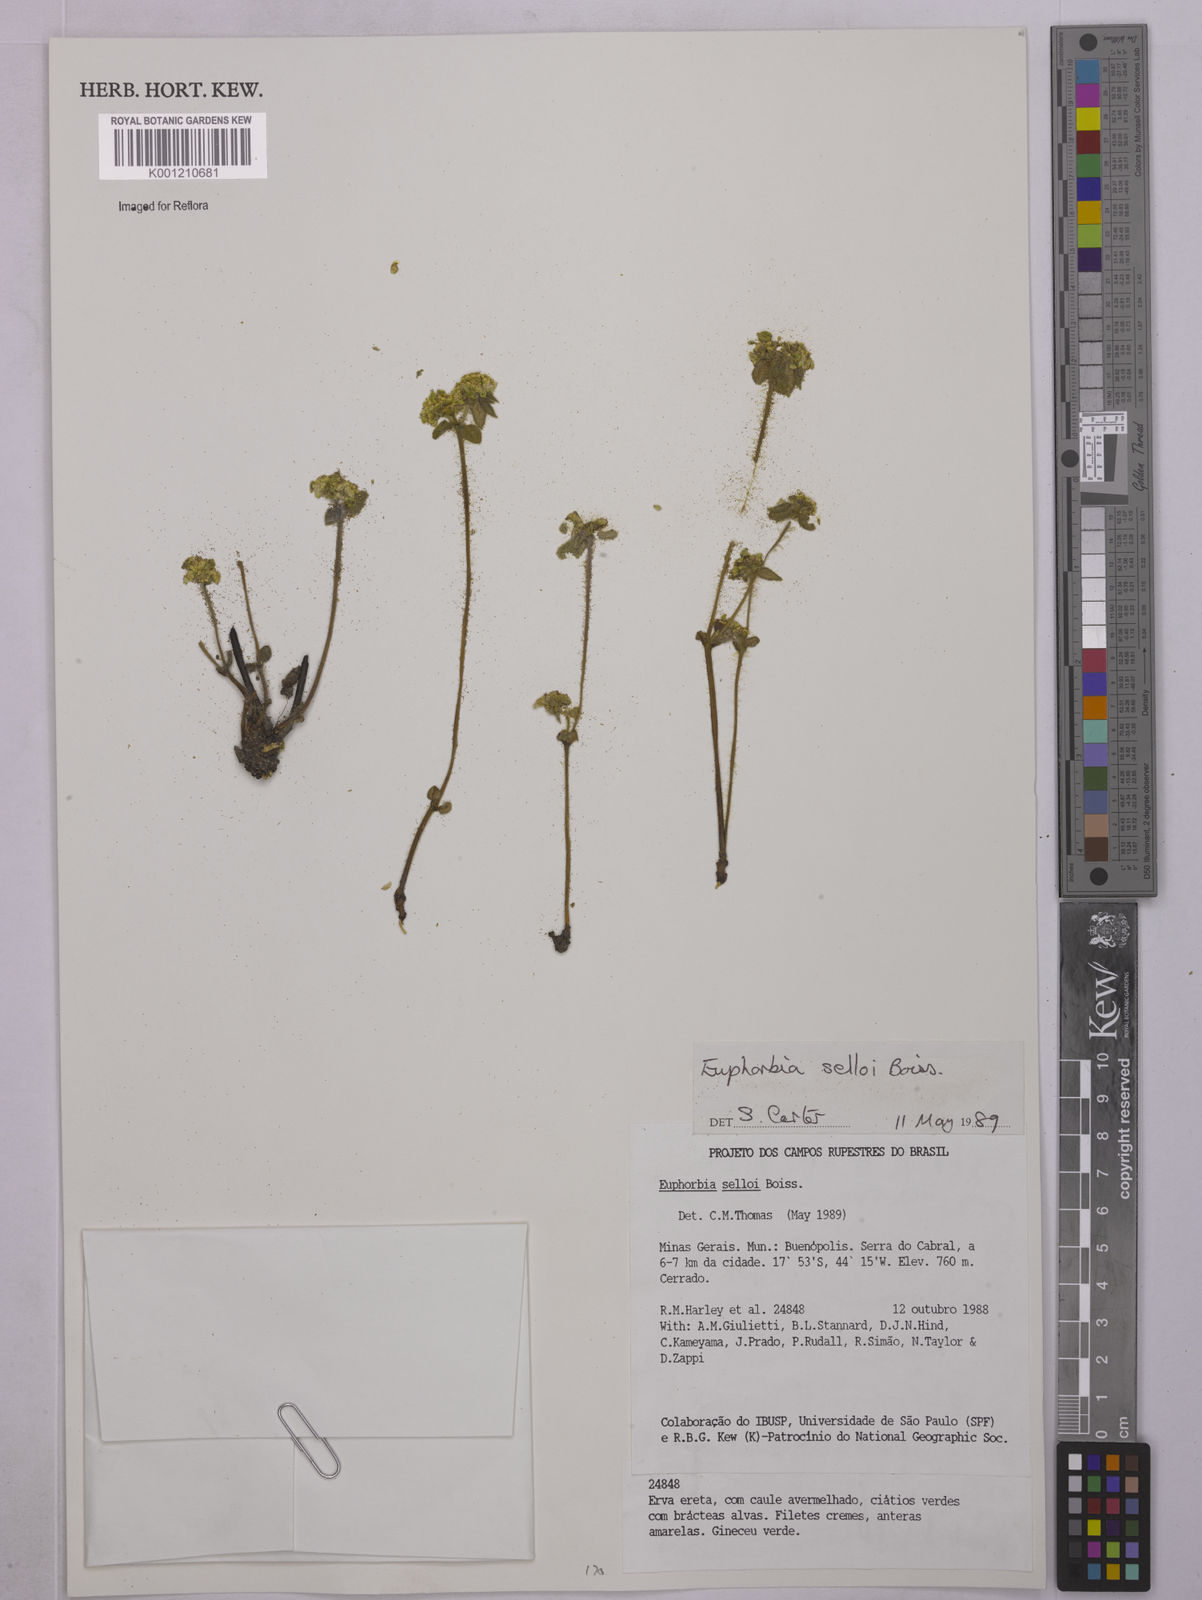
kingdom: Plantae
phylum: Tracheophyta
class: Magnoliopsida
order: Malpighiales
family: Euphorbiaceae
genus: Euphorbia
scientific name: Euphorbia selloi
